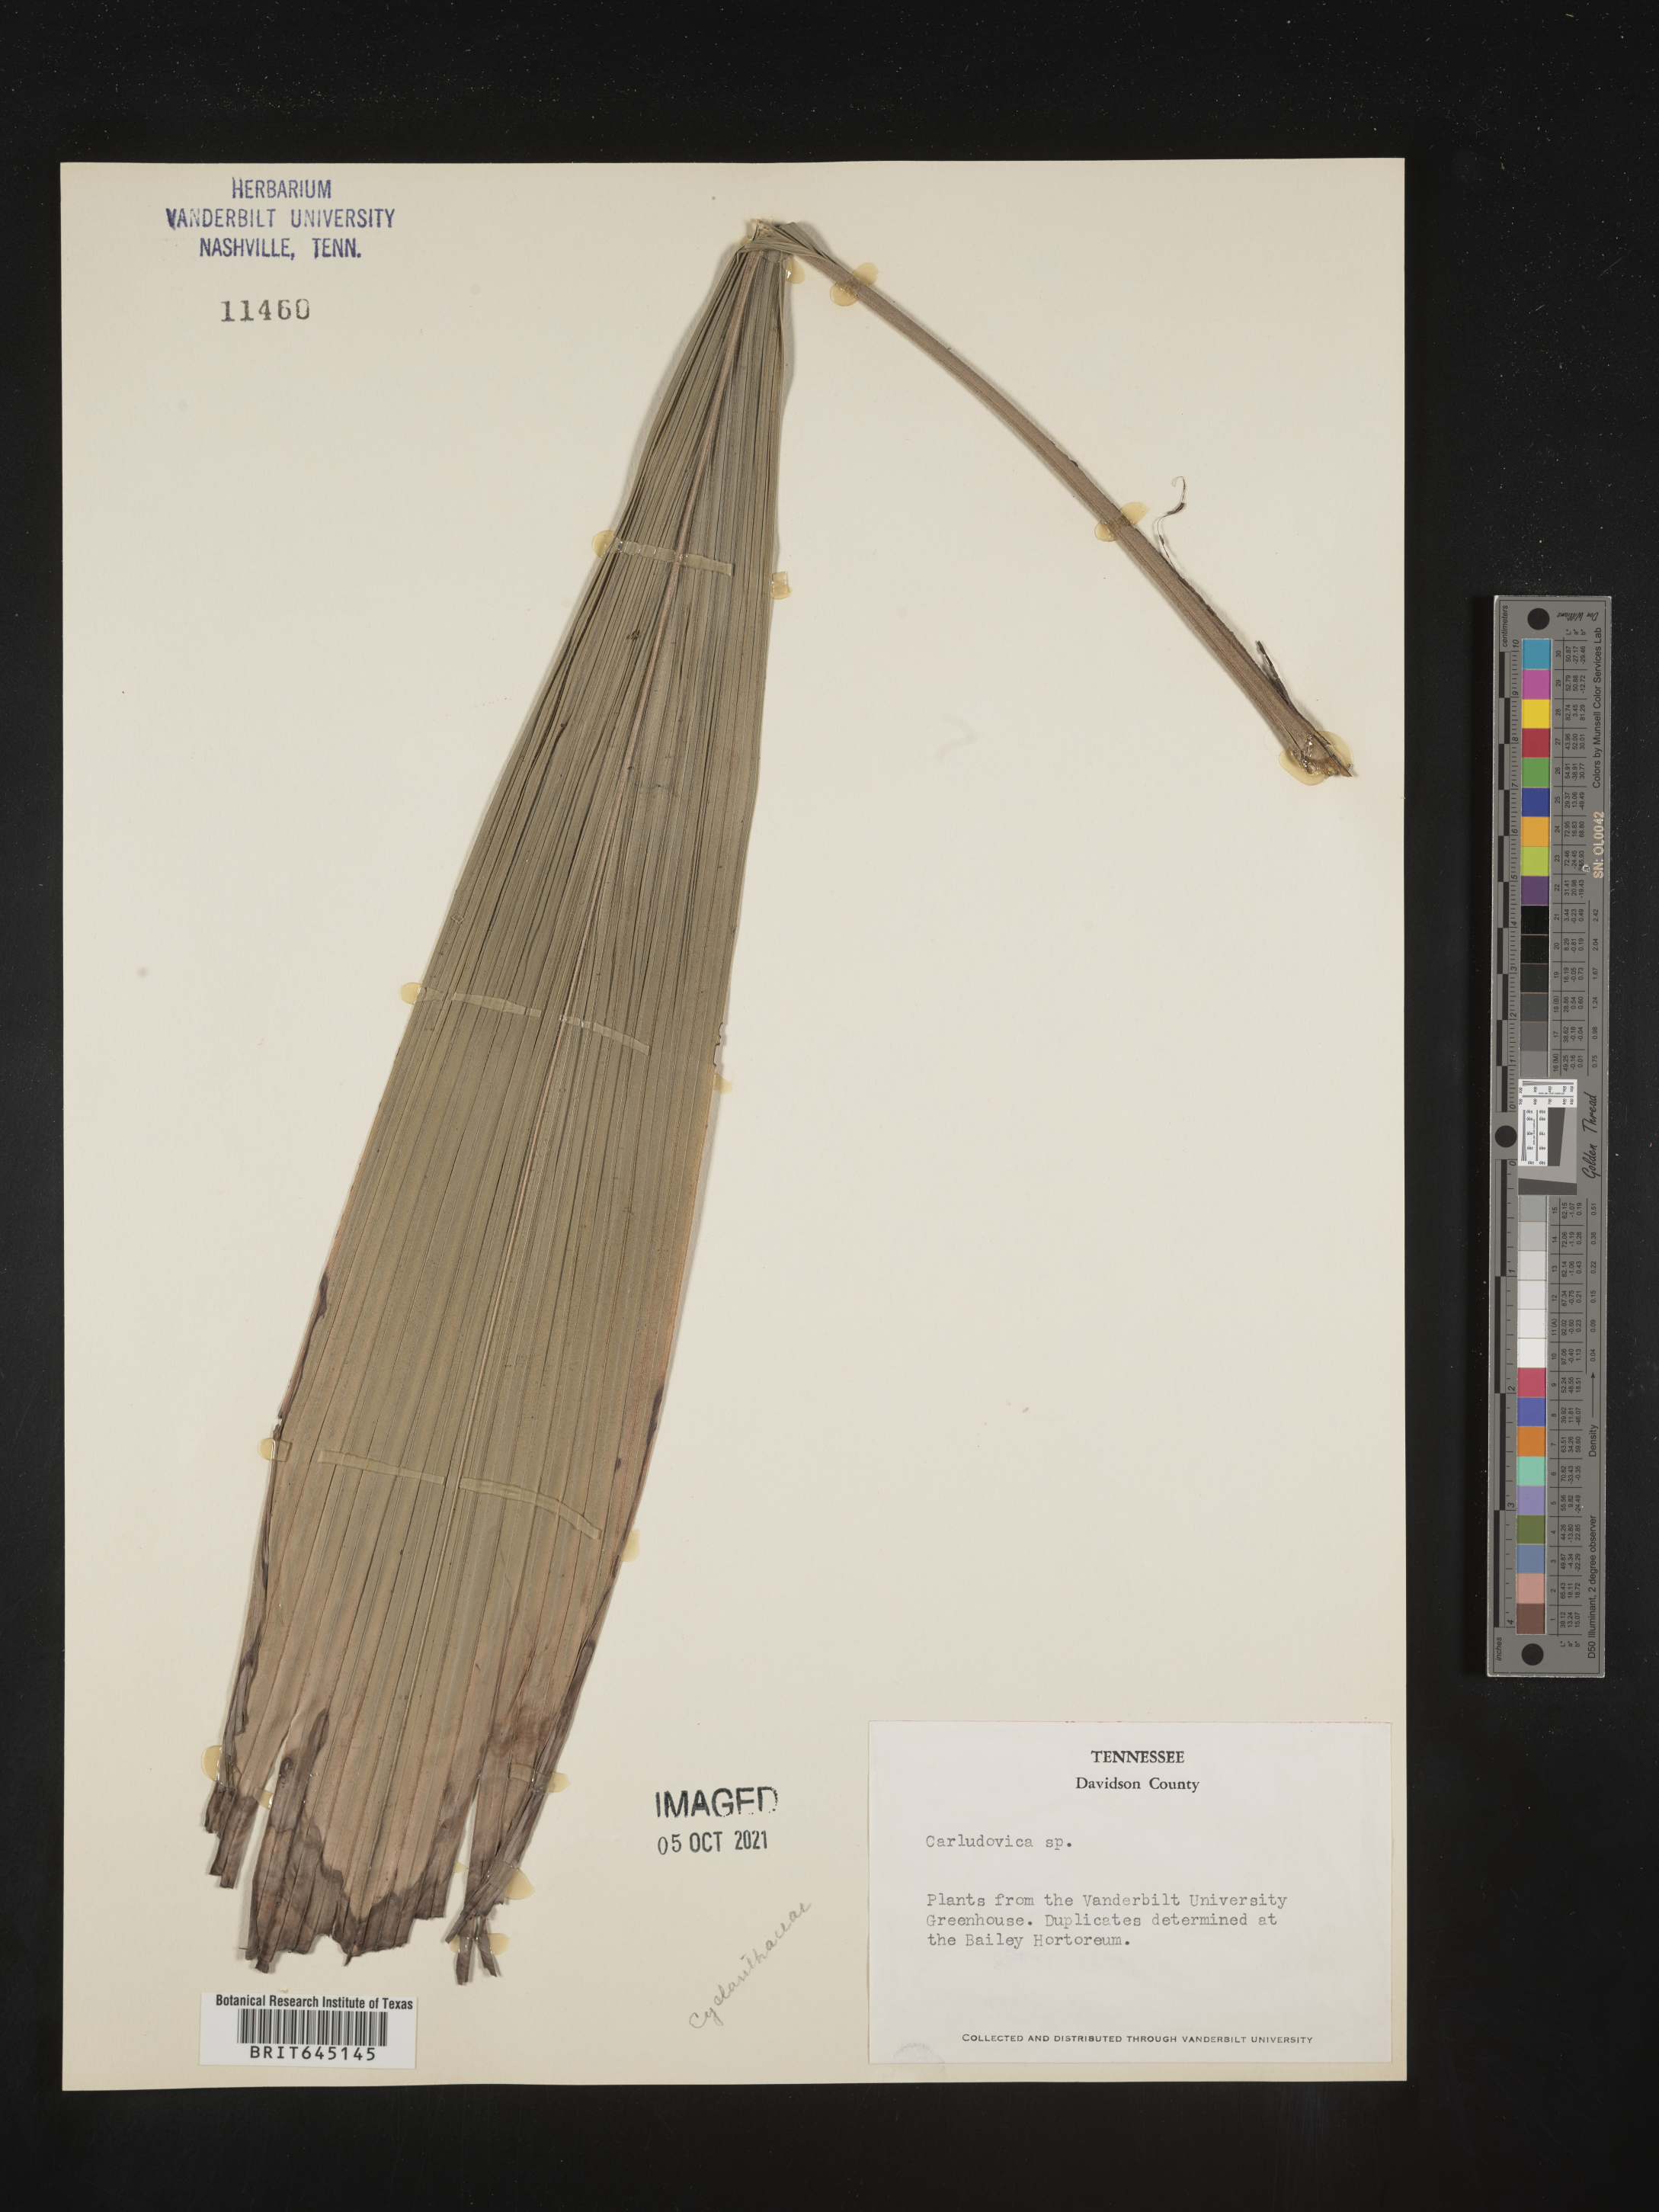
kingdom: Plantae
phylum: Tracheophyta
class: Liliopsida
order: Pandanales
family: Cyclanthaceae
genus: Carludovica
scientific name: Carludovica
